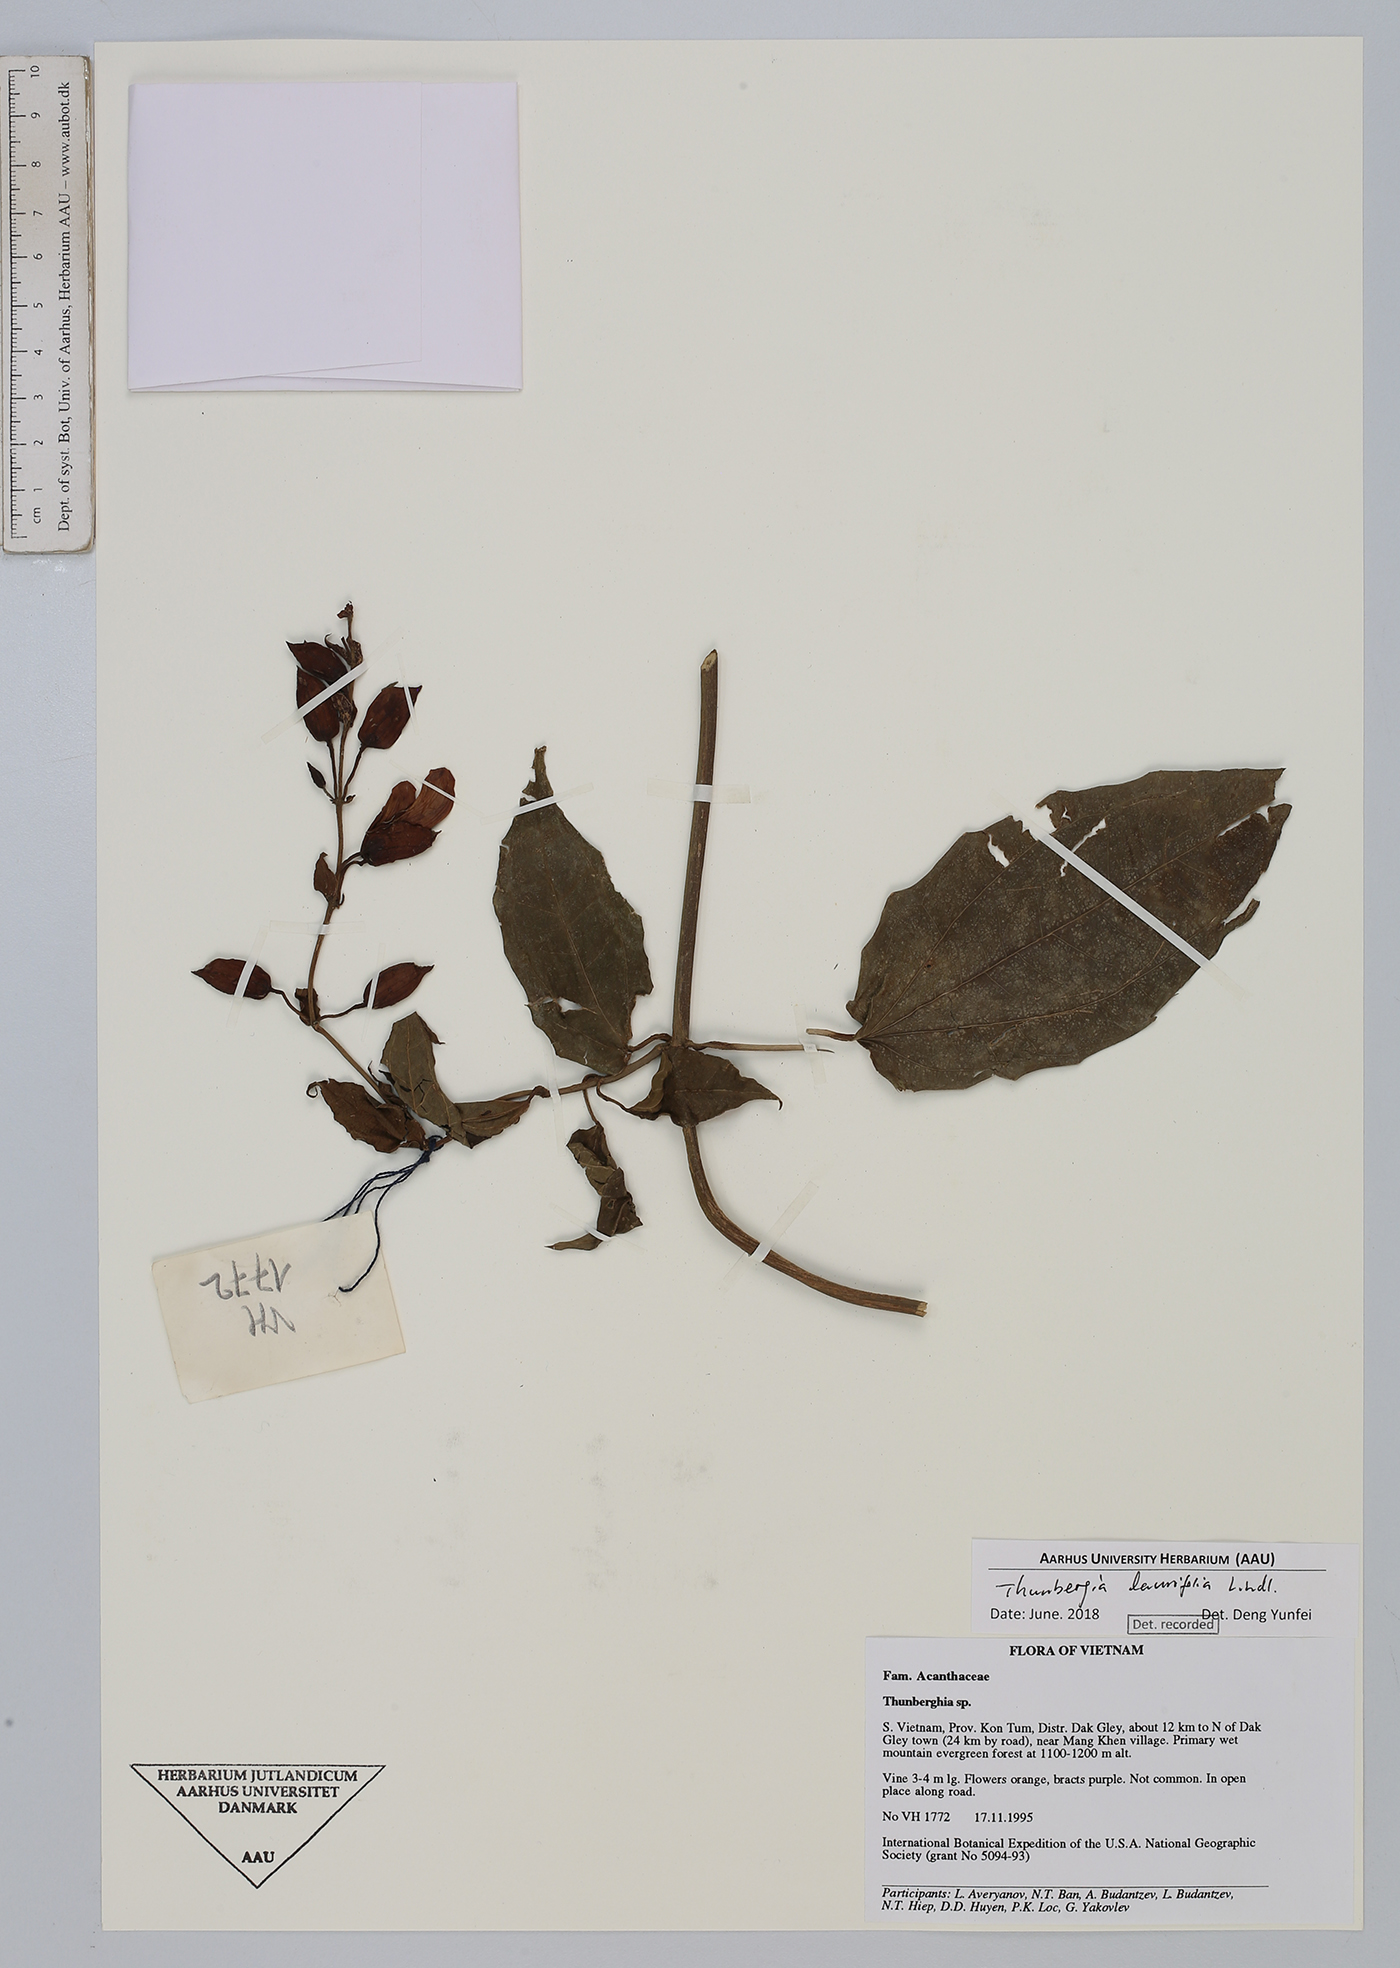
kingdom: Plantae
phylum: Tracheophyta
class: Magnoliopsida
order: Lamiales
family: Acanthaceae
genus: Thunbergia
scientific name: Thunbergia laurifolia
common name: Laurel-leaved thunbergia
